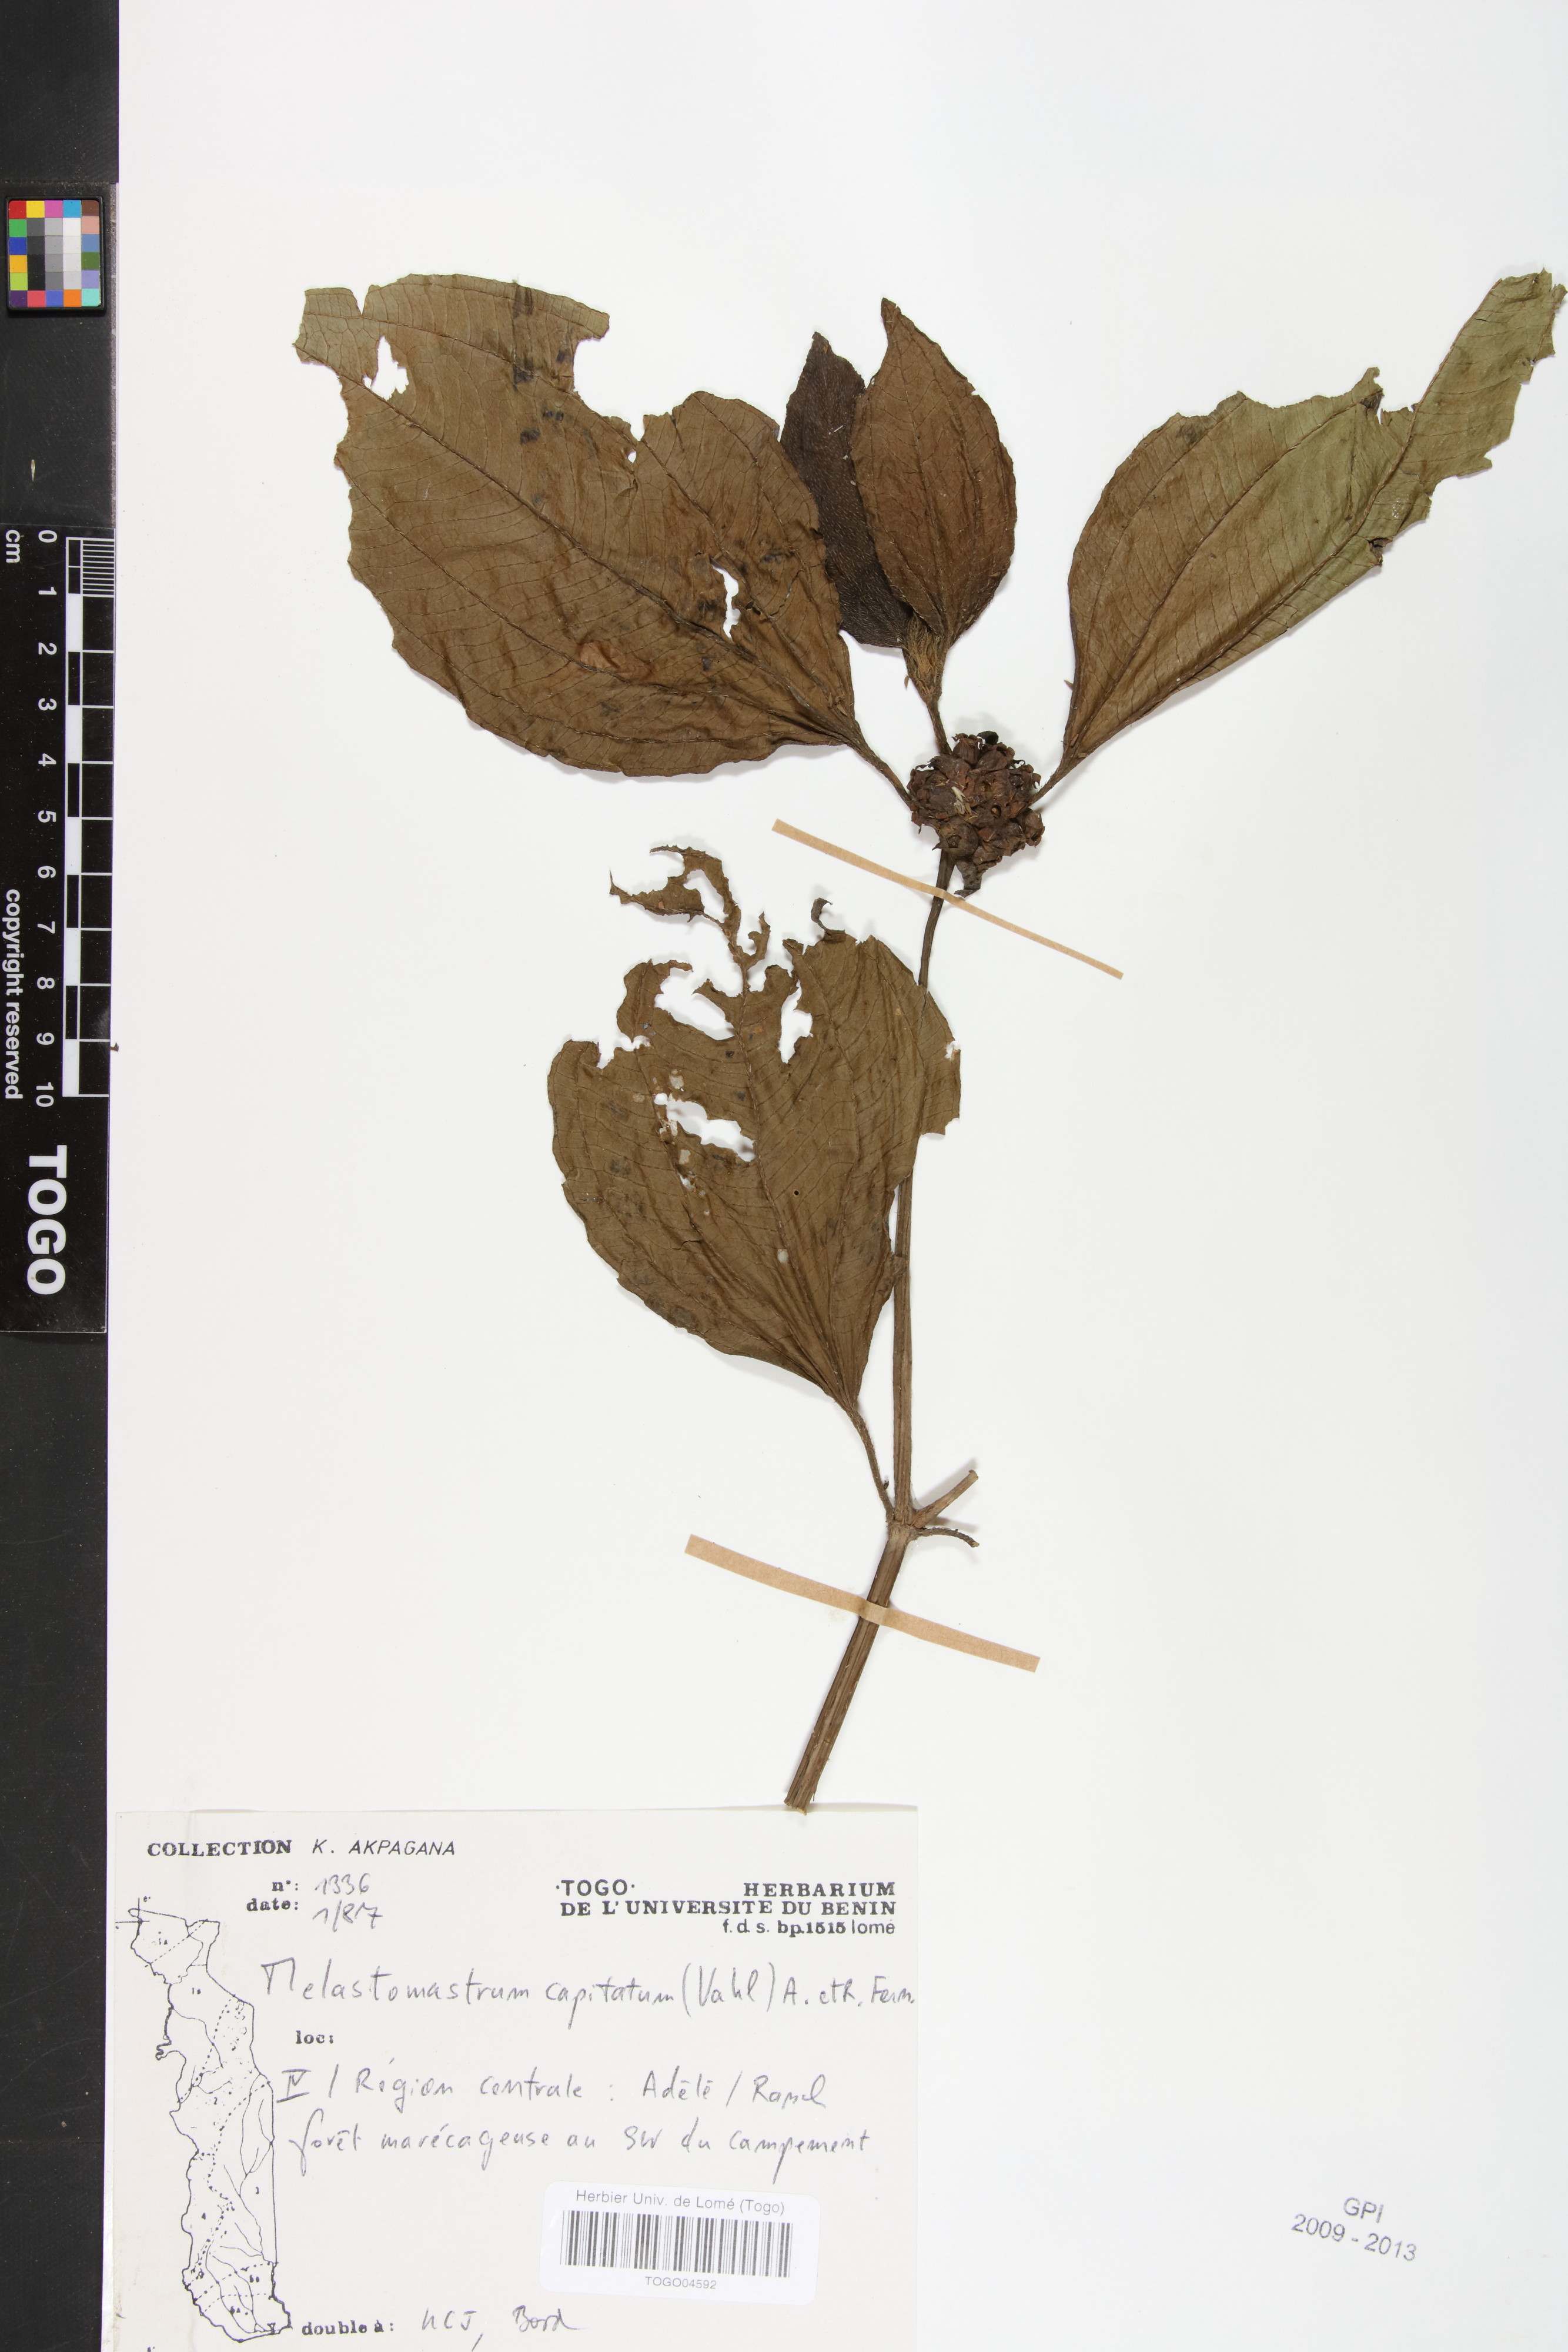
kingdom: Plantae
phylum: Tracheophyta
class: Magnoliopsida
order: Myrtales
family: Melastomataceae
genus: Melastomastrum
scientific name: Melastomastrum capitatum
